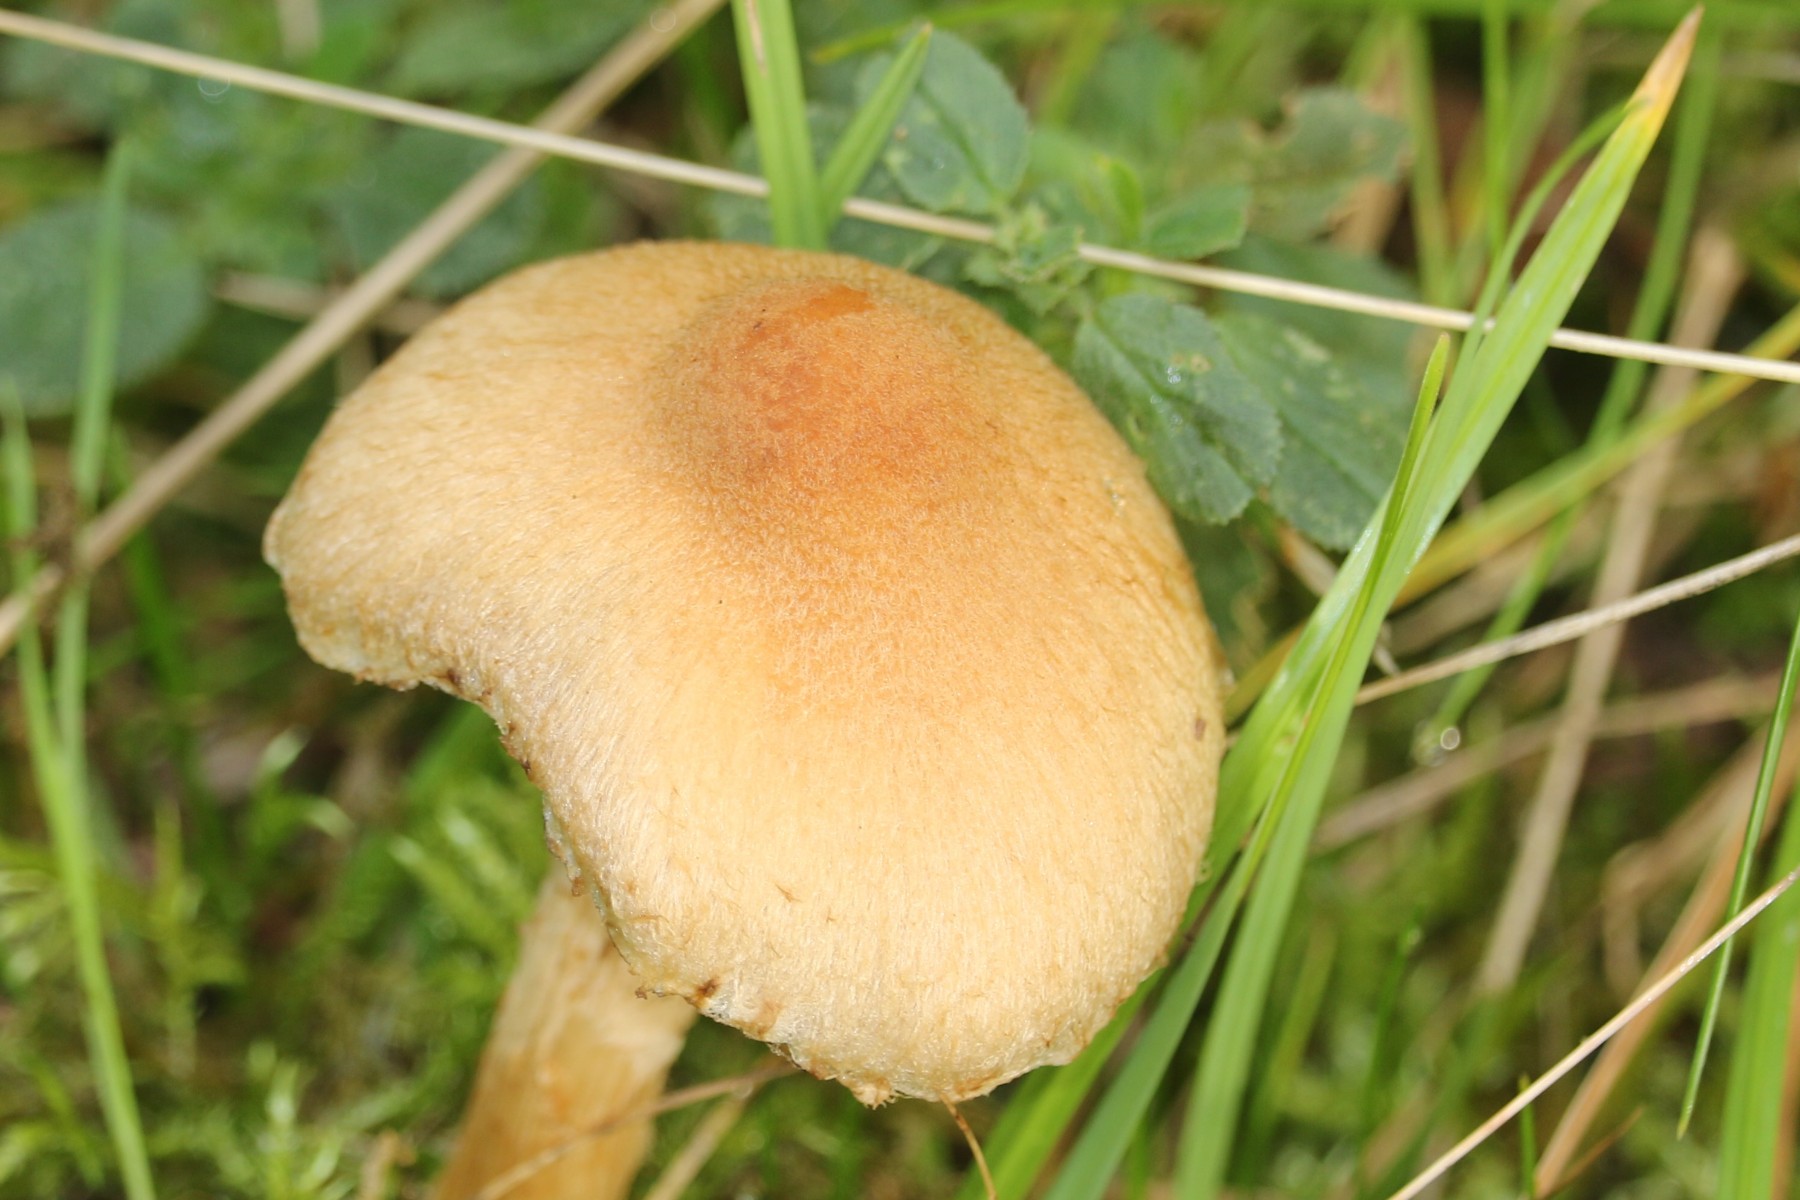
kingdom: Fungi
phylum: Basidiomycota
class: Agaricomycetes
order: Agaricales
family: Psathyrellaceae
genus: Lacrymaria
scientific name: Lacrymaria lacrymabunda
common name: grædende mørkhat
